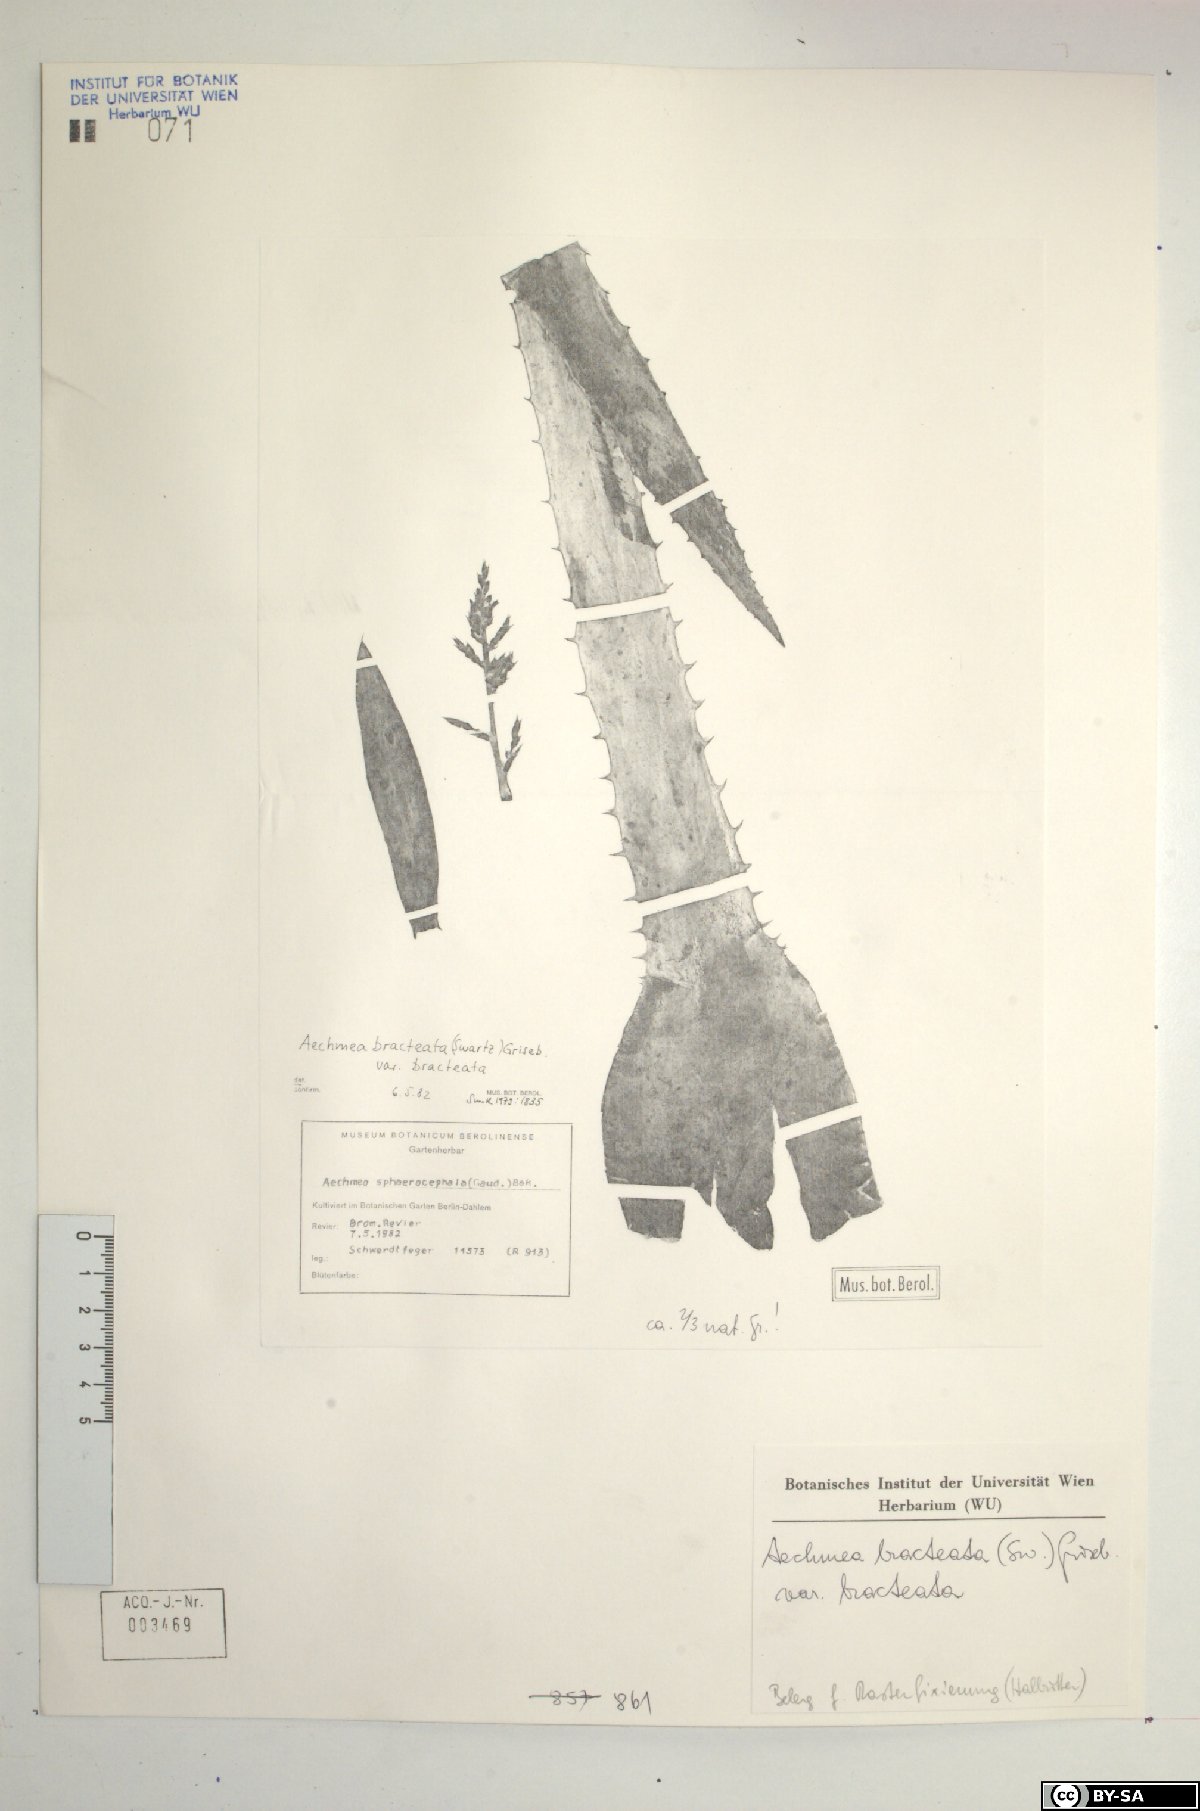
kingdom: Plantae
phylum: Tracheophyta
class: Liliopsida
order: Poales
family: Bromeliaceae
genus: Aechmea
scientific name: Aechmea bracteata
